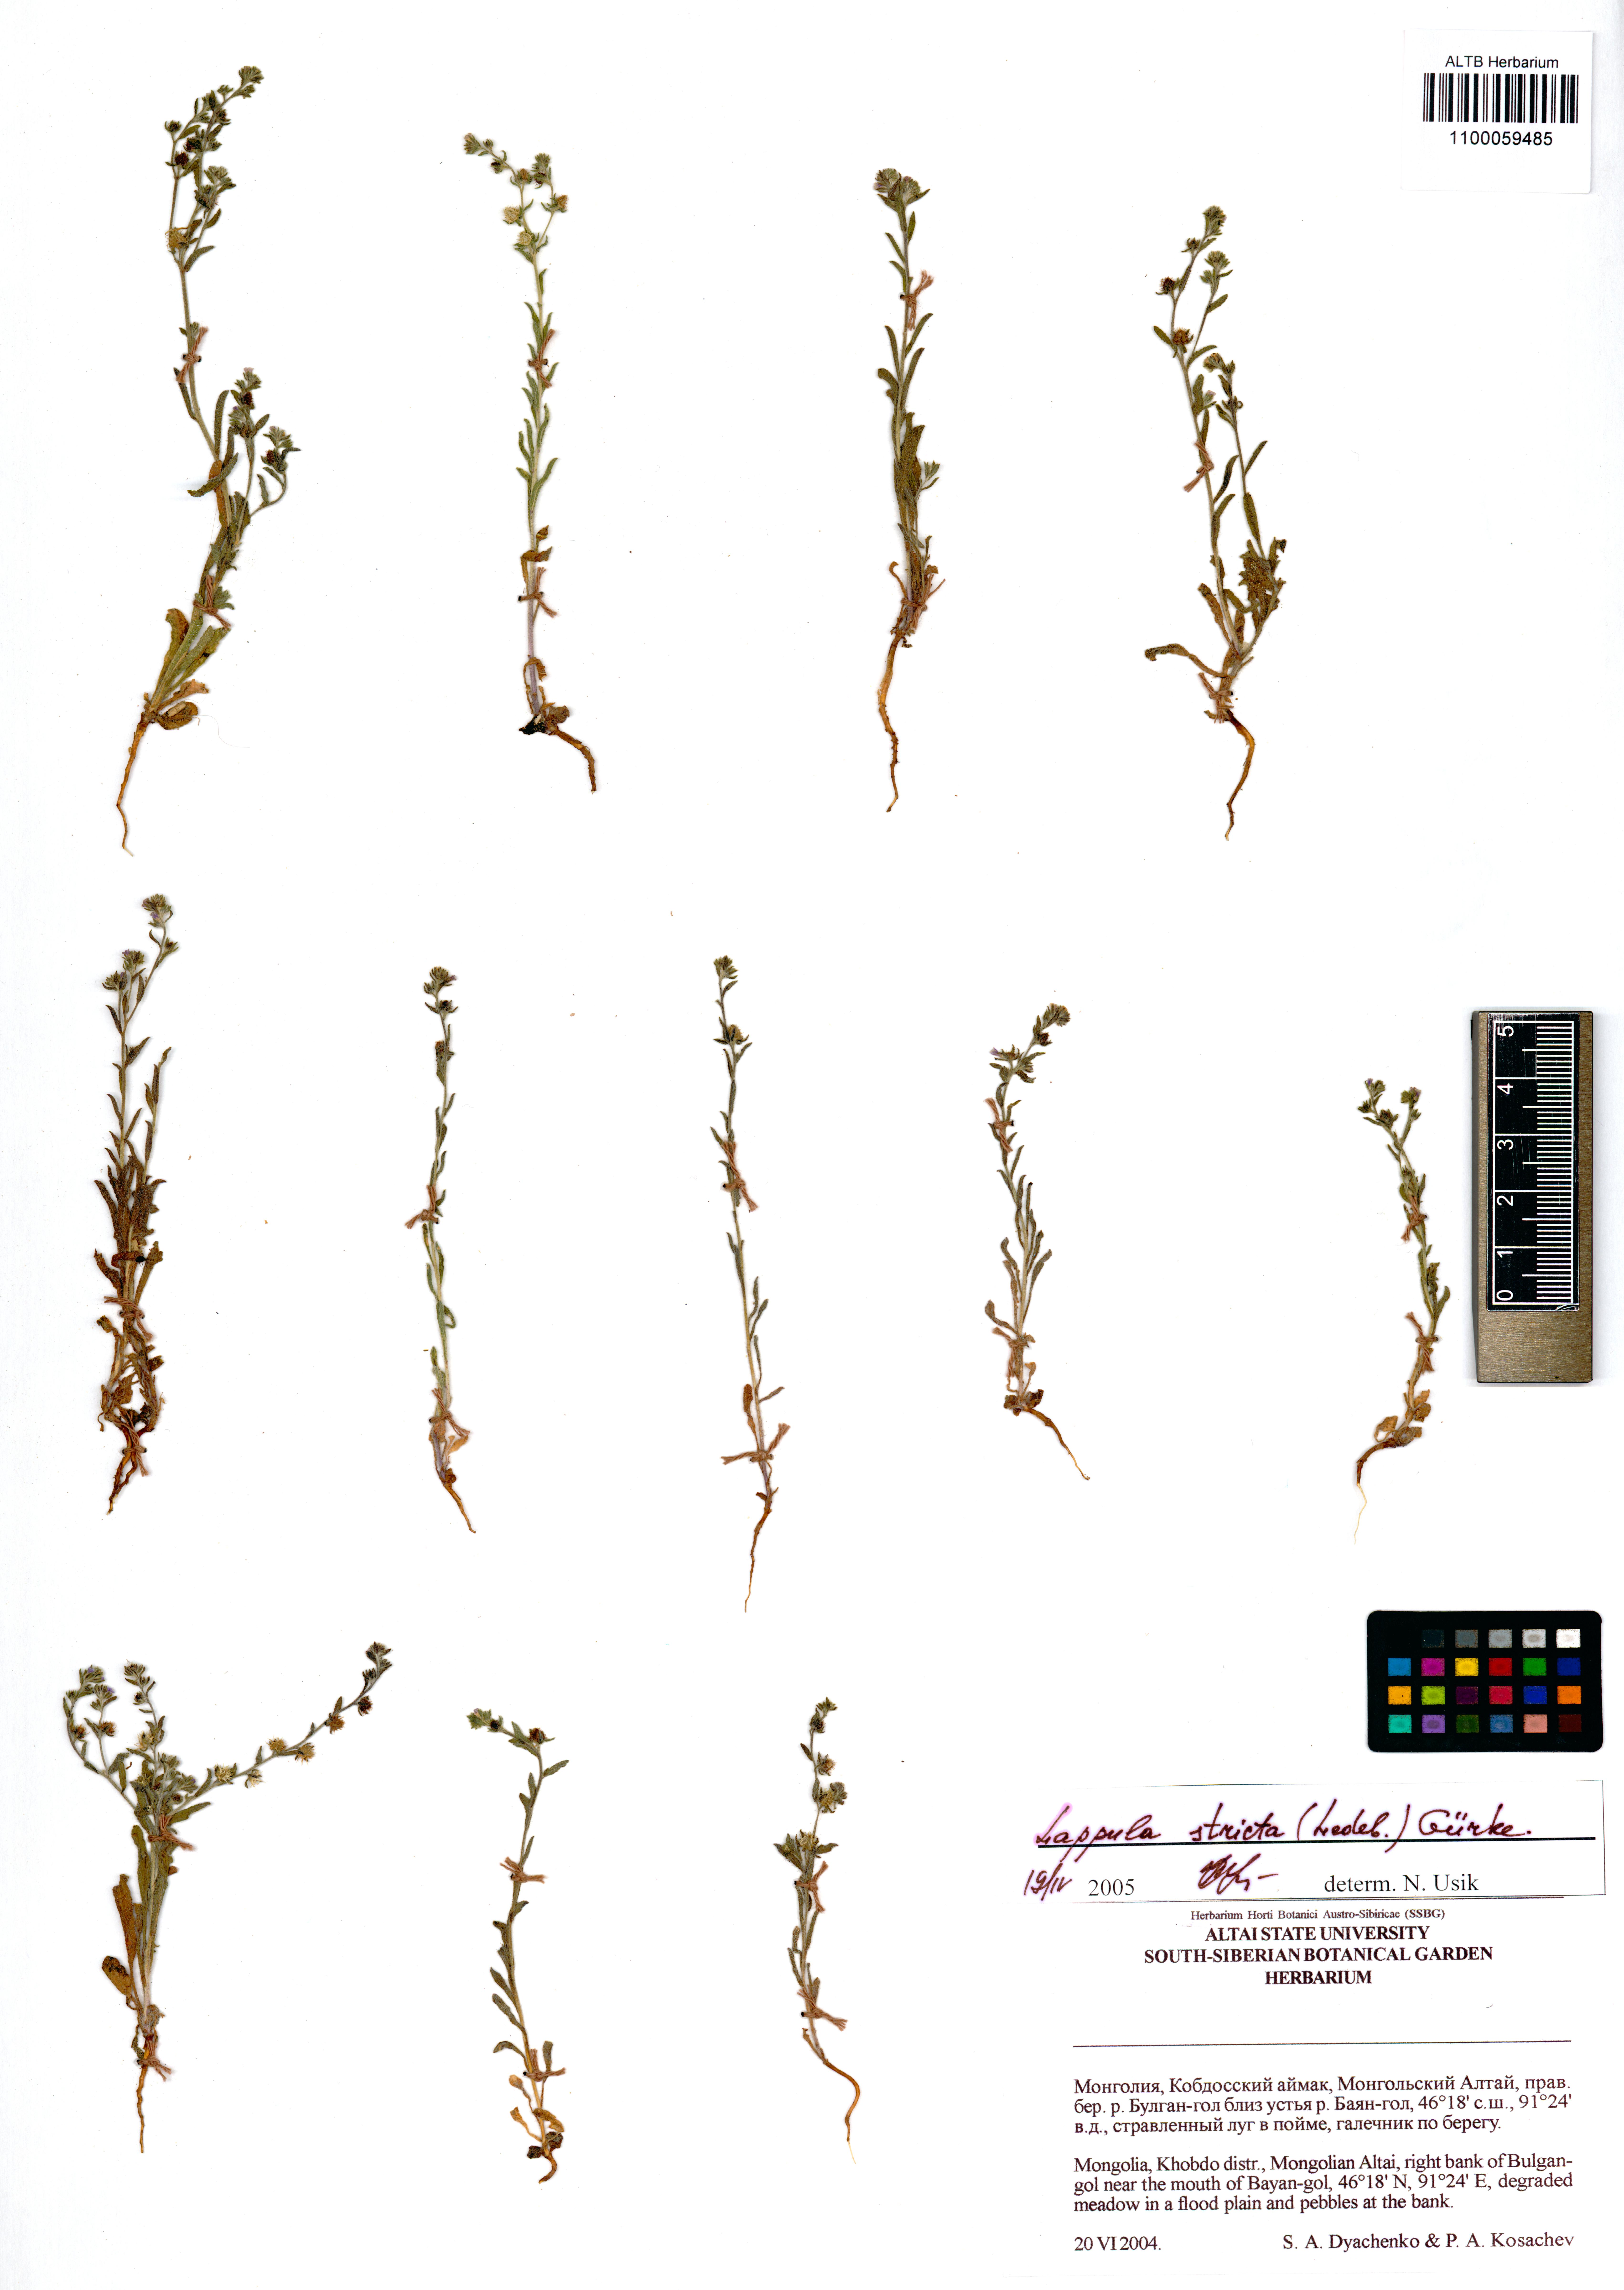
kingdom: Plantae
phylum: Tracheophyta
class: Magnoliopsida
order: Boraginales
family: Boraginaceae
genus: Lappula
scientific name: Lappula stricta
